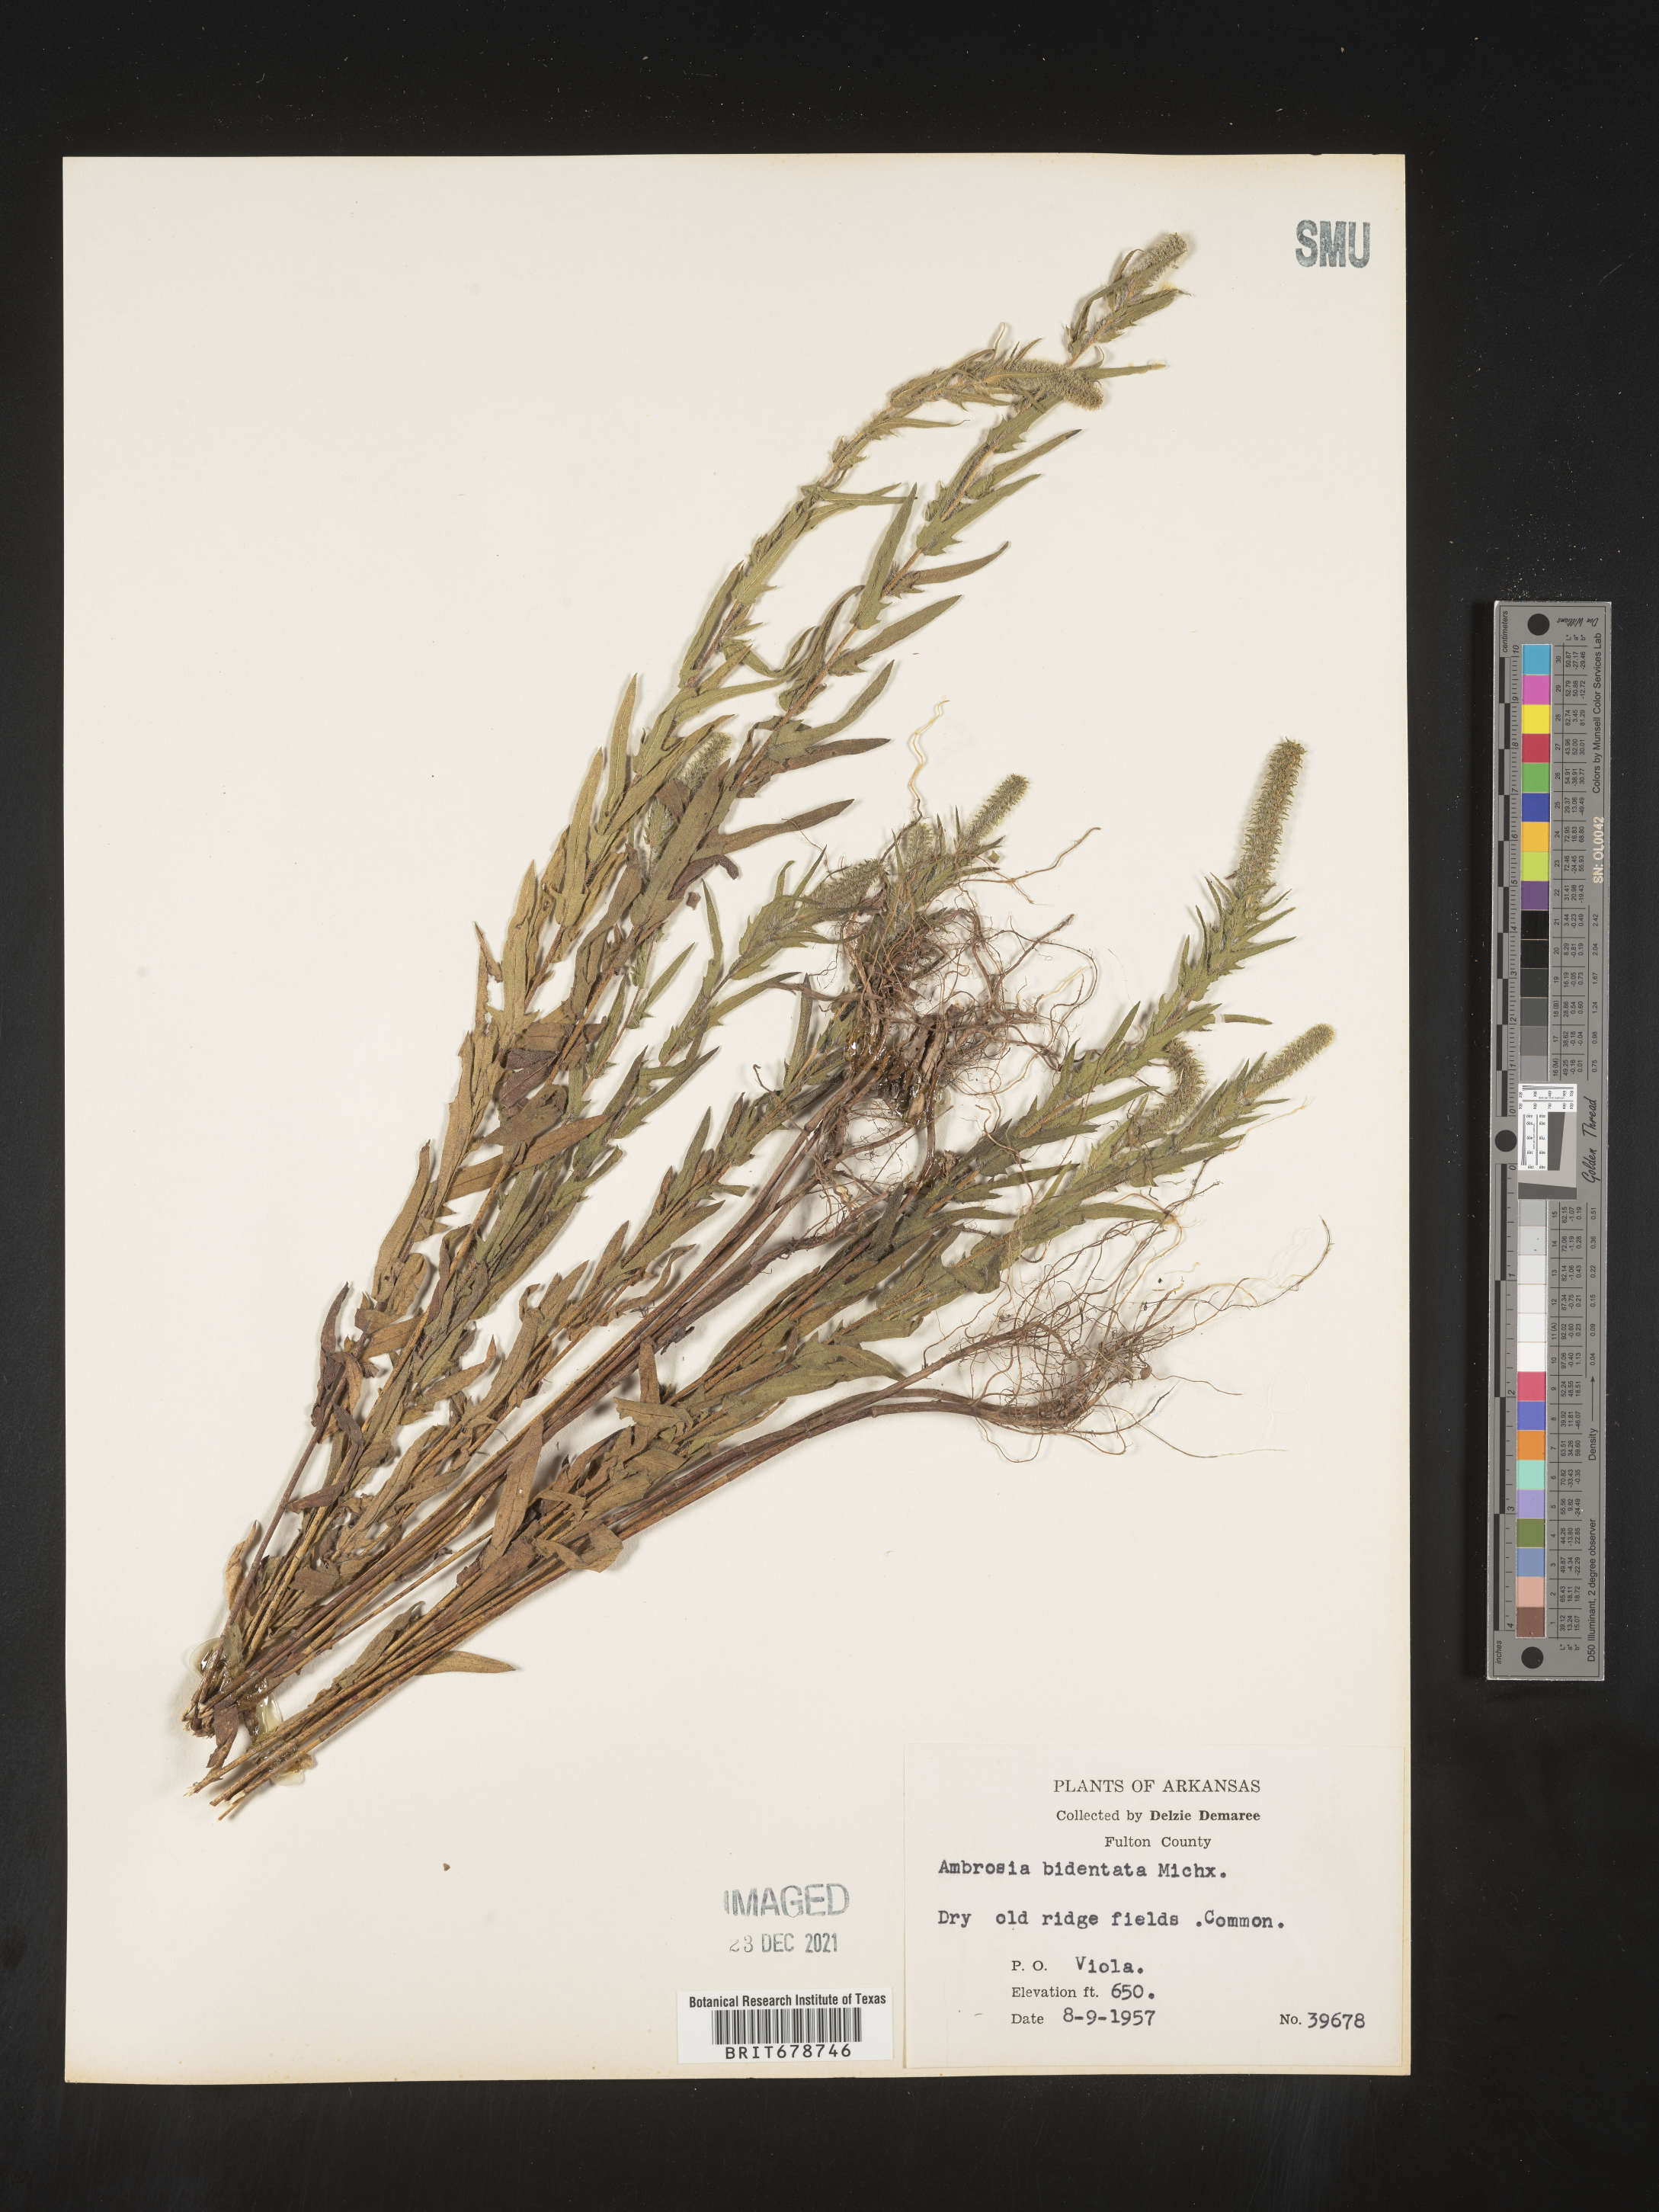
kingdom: Plantae
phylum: Tracheophyta
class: Magnoliopsida
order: Asterales
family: Asteraceae
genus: Ambrosia
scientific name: Ambrosia bidentata
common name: Southern ragweed
